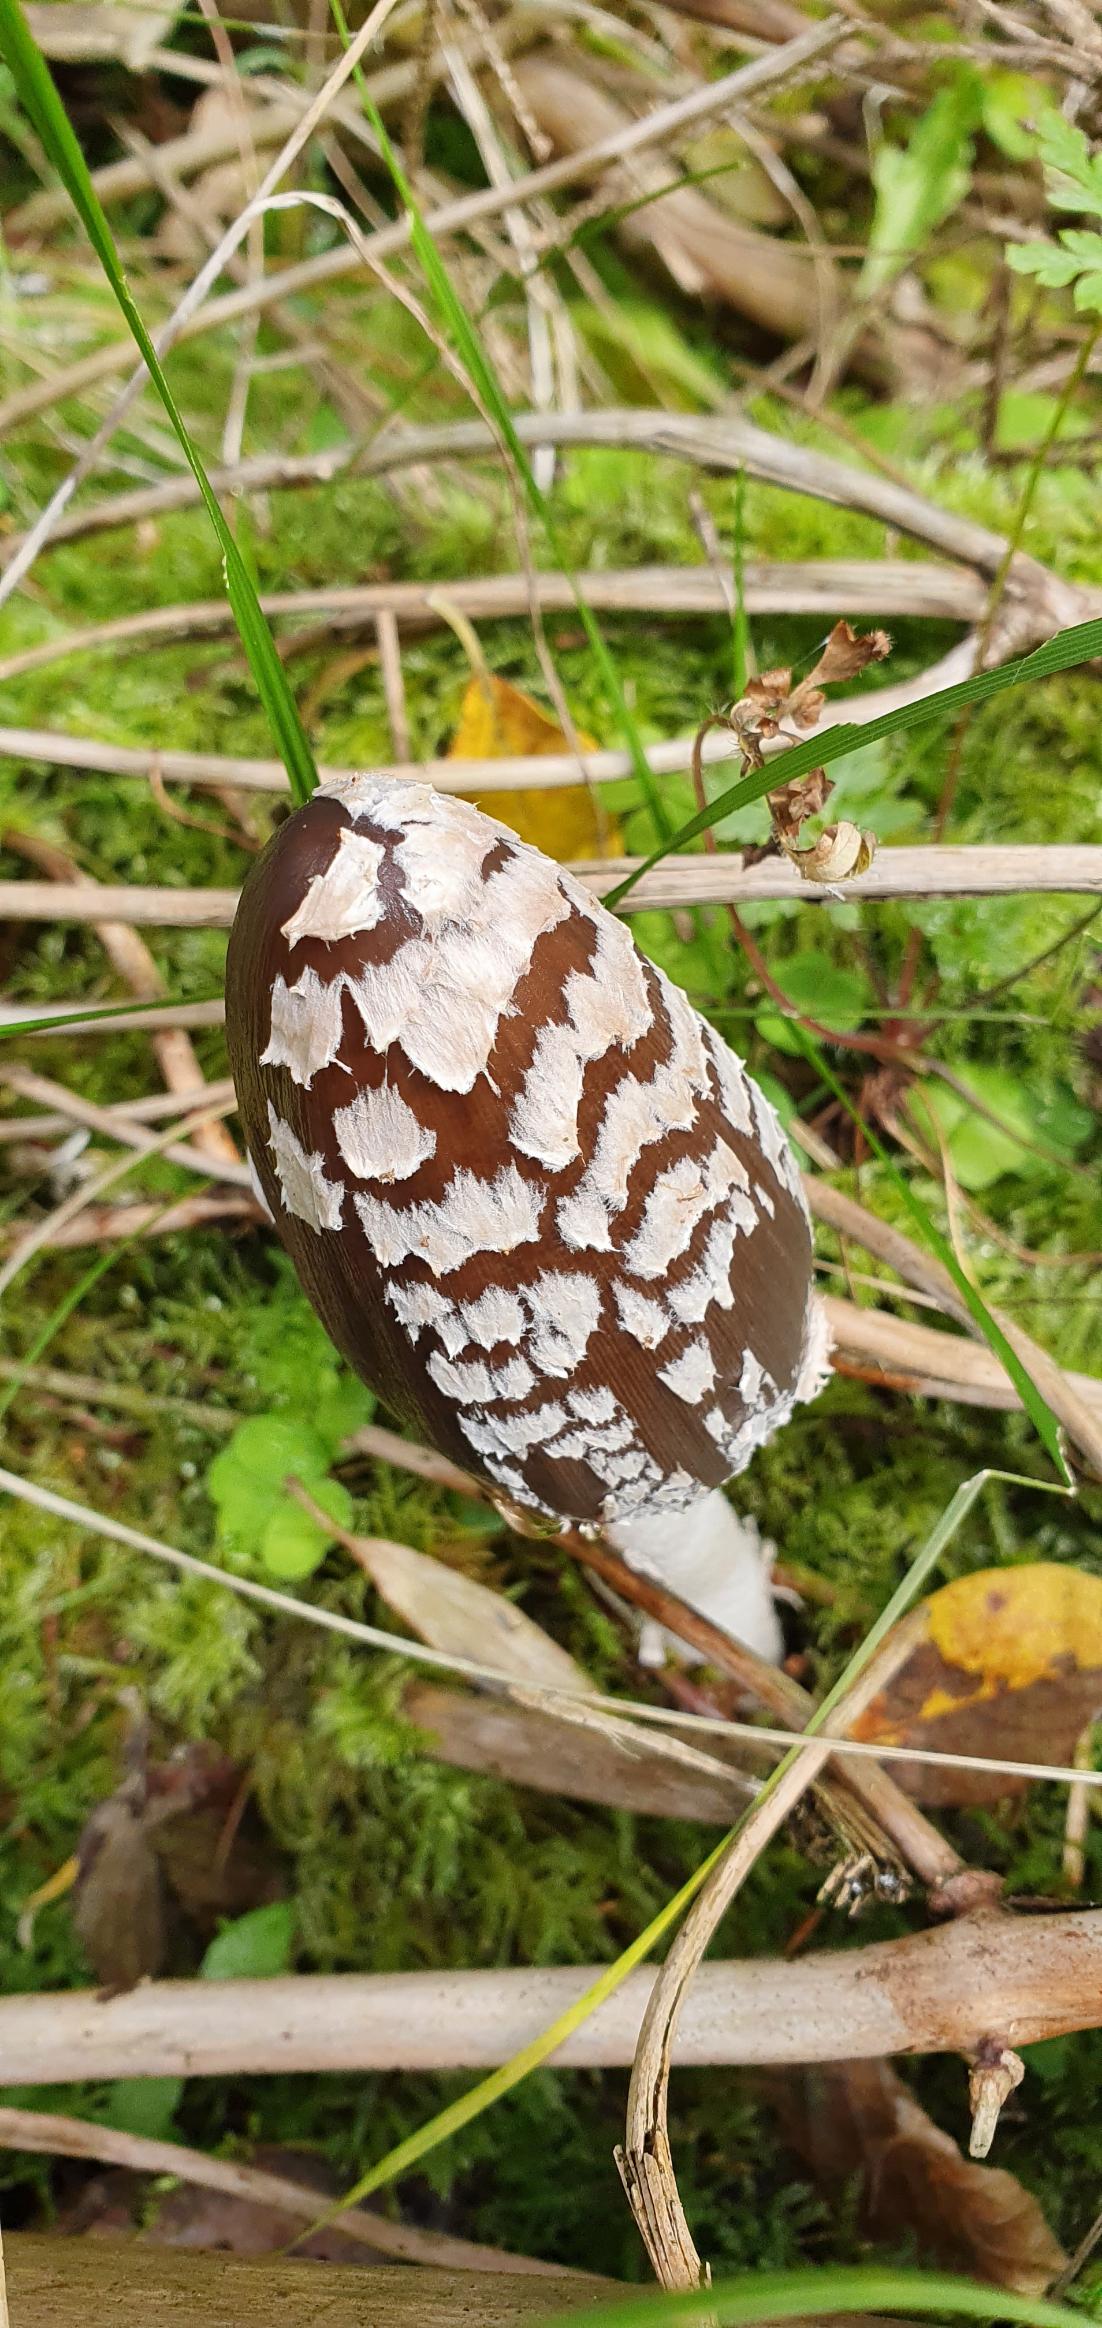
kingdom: Fungi
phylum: Basidiomycota
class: Agaricomycetes
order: Agaricales
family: Psathyrellaceae
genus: Coprinopsis
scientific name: Coprinopsis picacea
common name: Skade-blækhat
